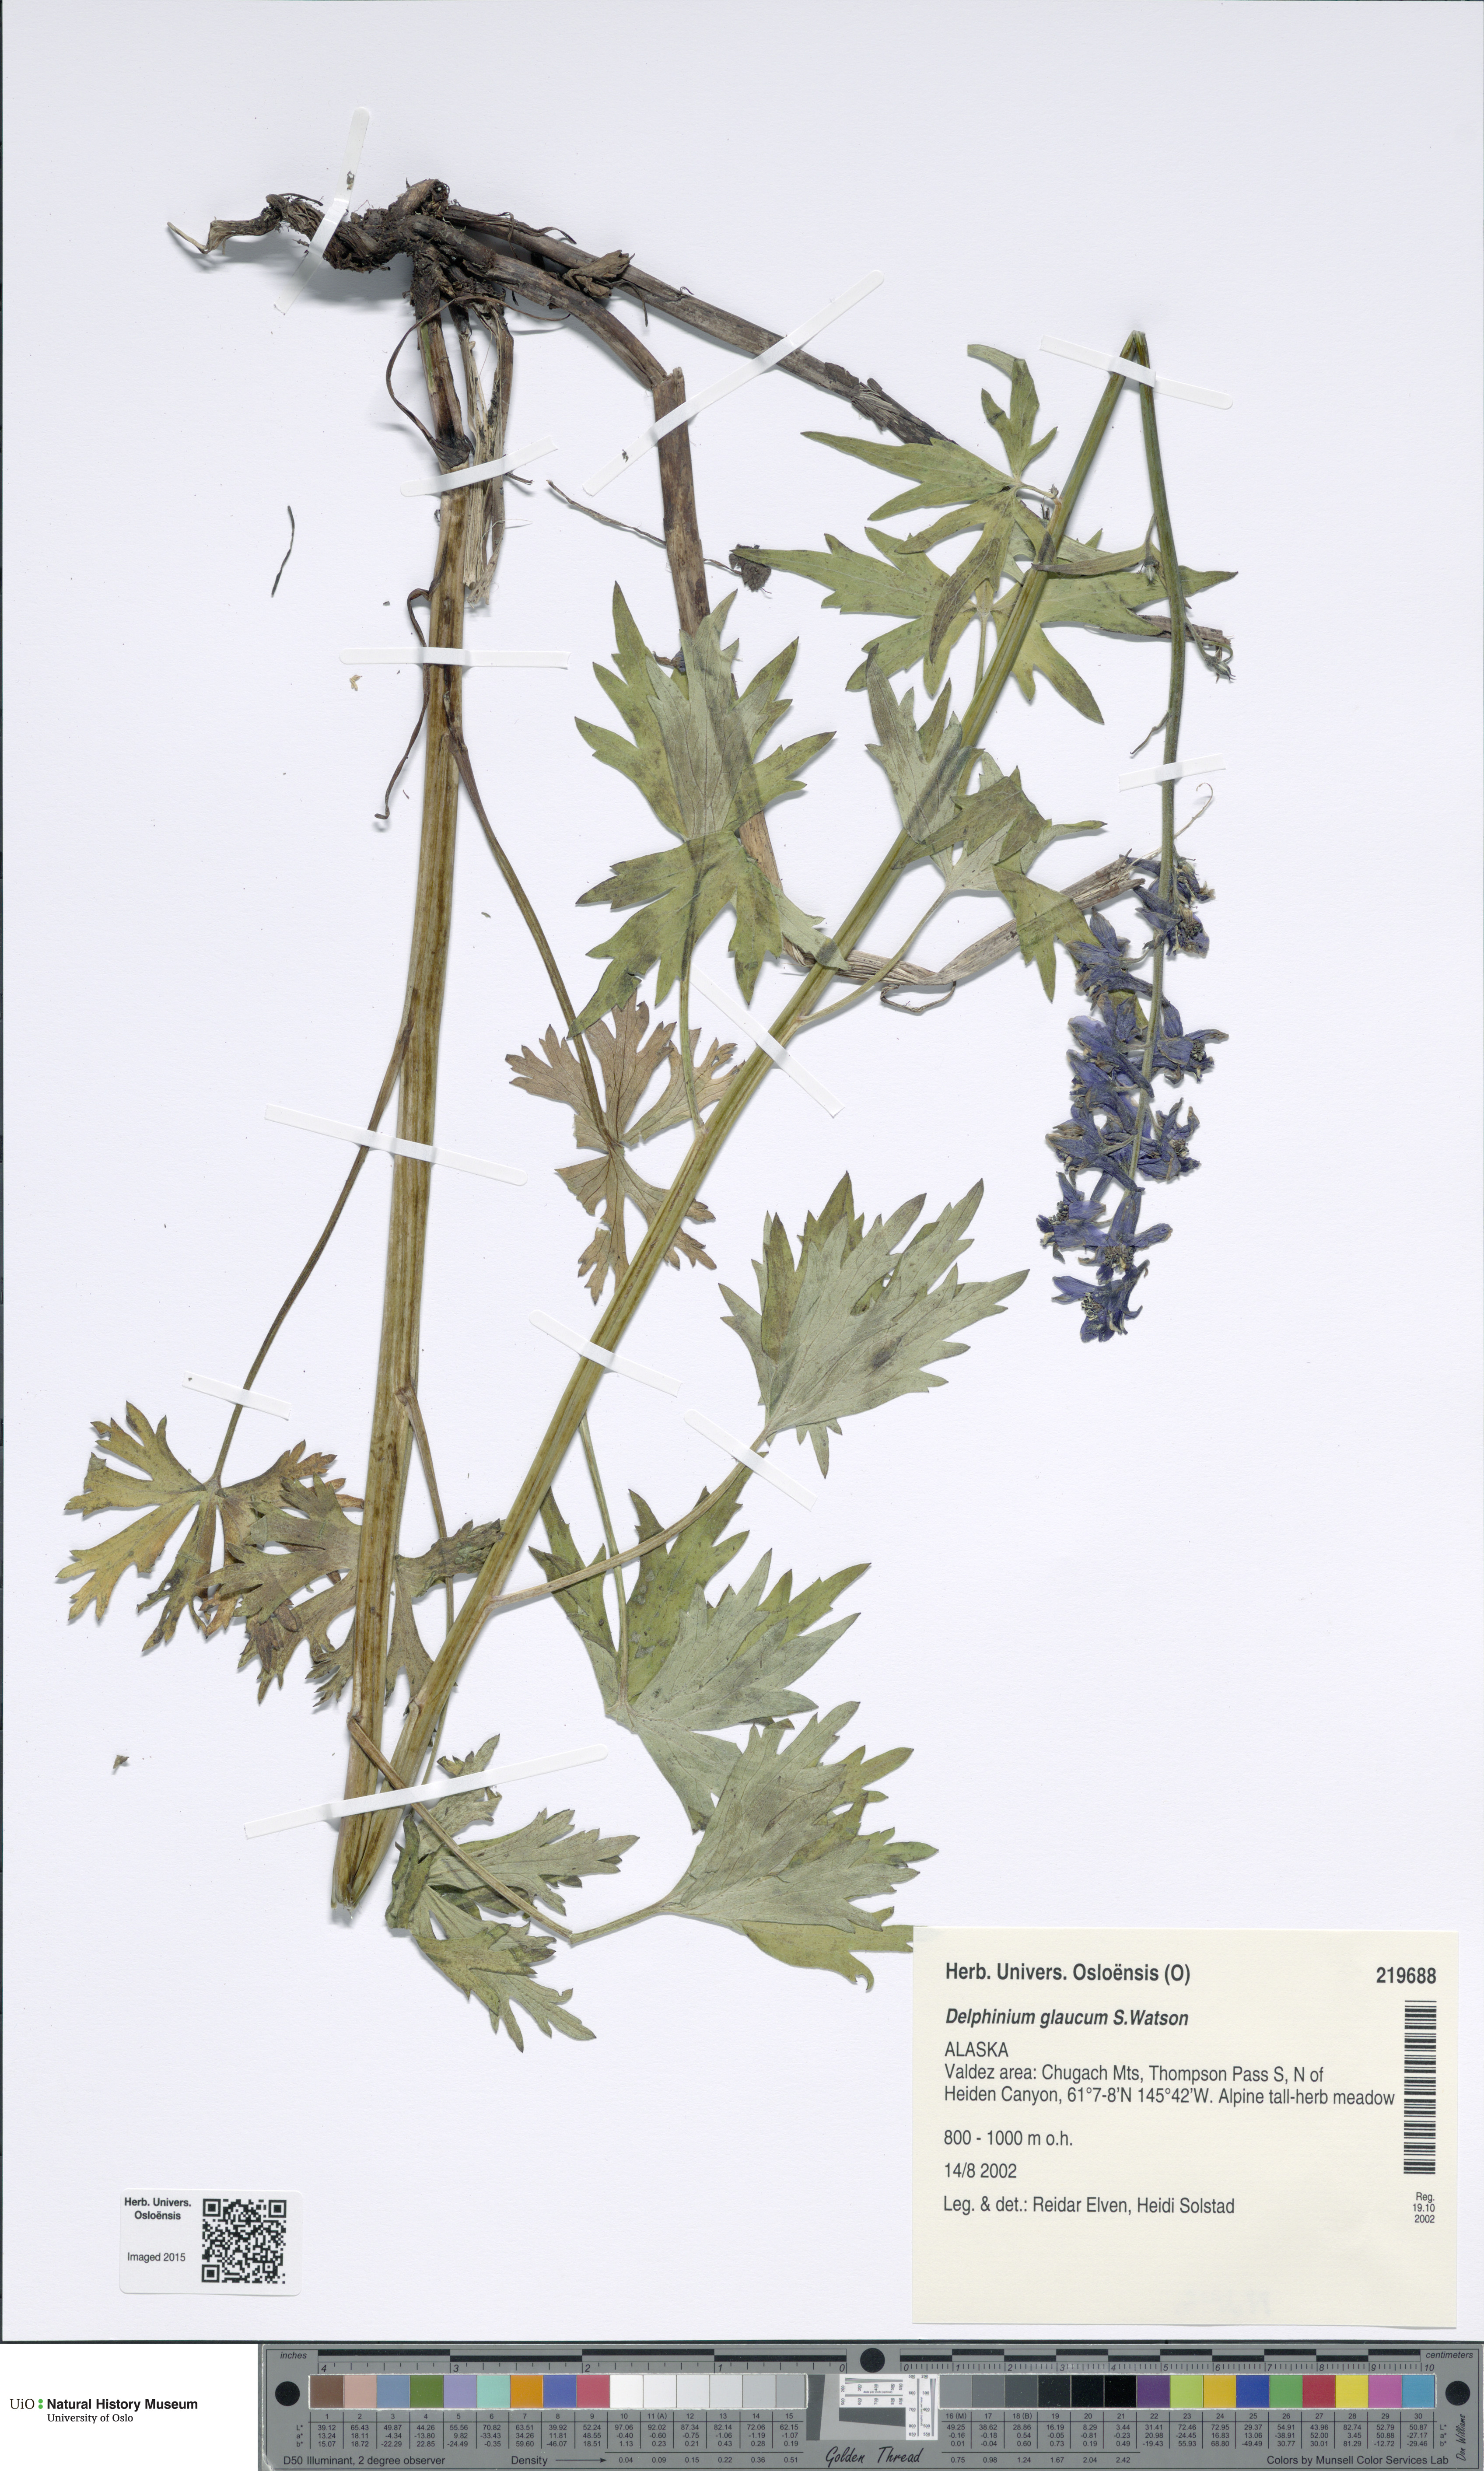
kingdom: Plantae
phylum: Tracheophyta
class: Magnoliopsida
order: Ranunculales
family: Ranunculaceae
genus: Delphinium
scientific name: Delphinium glaucum
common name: Brown's larkspur
